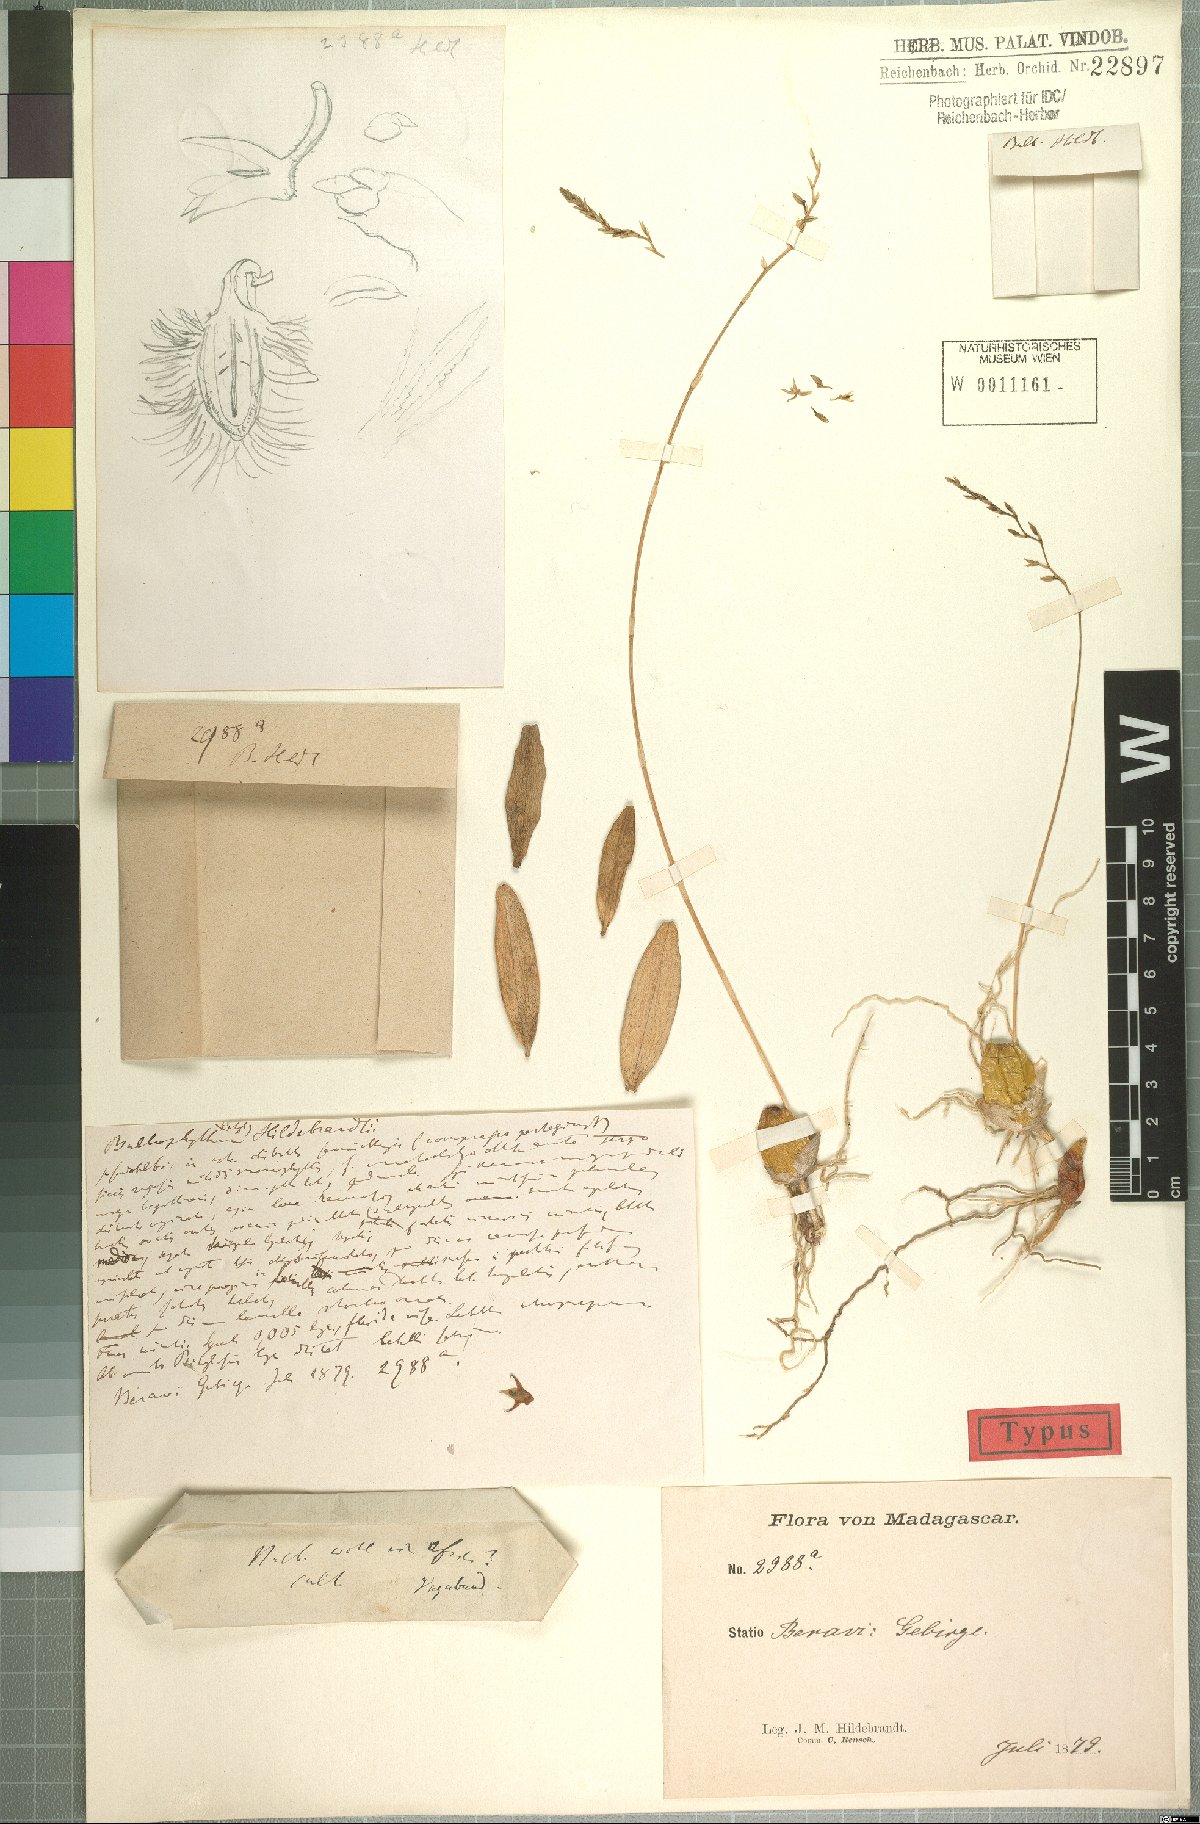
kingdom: Plantae
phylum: Tracheophyta
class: Liliopsida
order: Asparagales
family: Orchidaceae
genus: Bulbophyllum
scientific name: Bulbophyllum hildebrandtii
